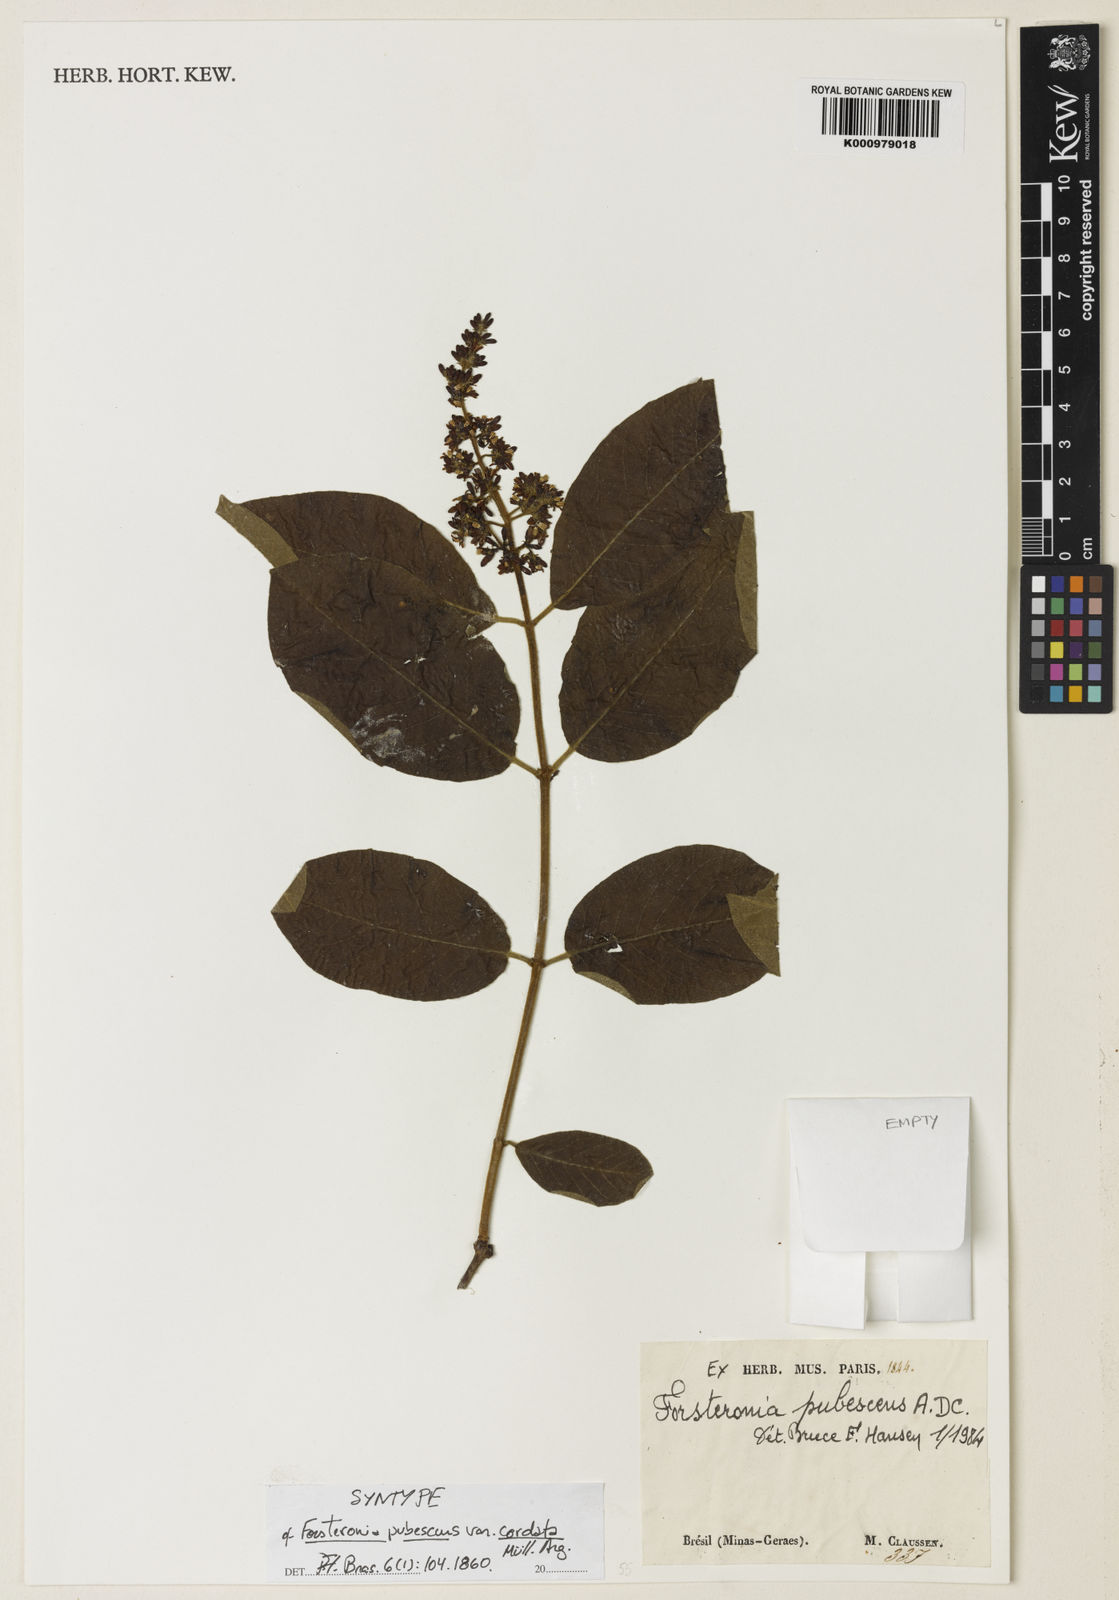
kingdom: Plantae
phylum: Tracheophyta
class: Magnoliopsida
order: Gentianales
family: Apocynaceae
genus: Forsteronia
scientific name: Forsteronia
